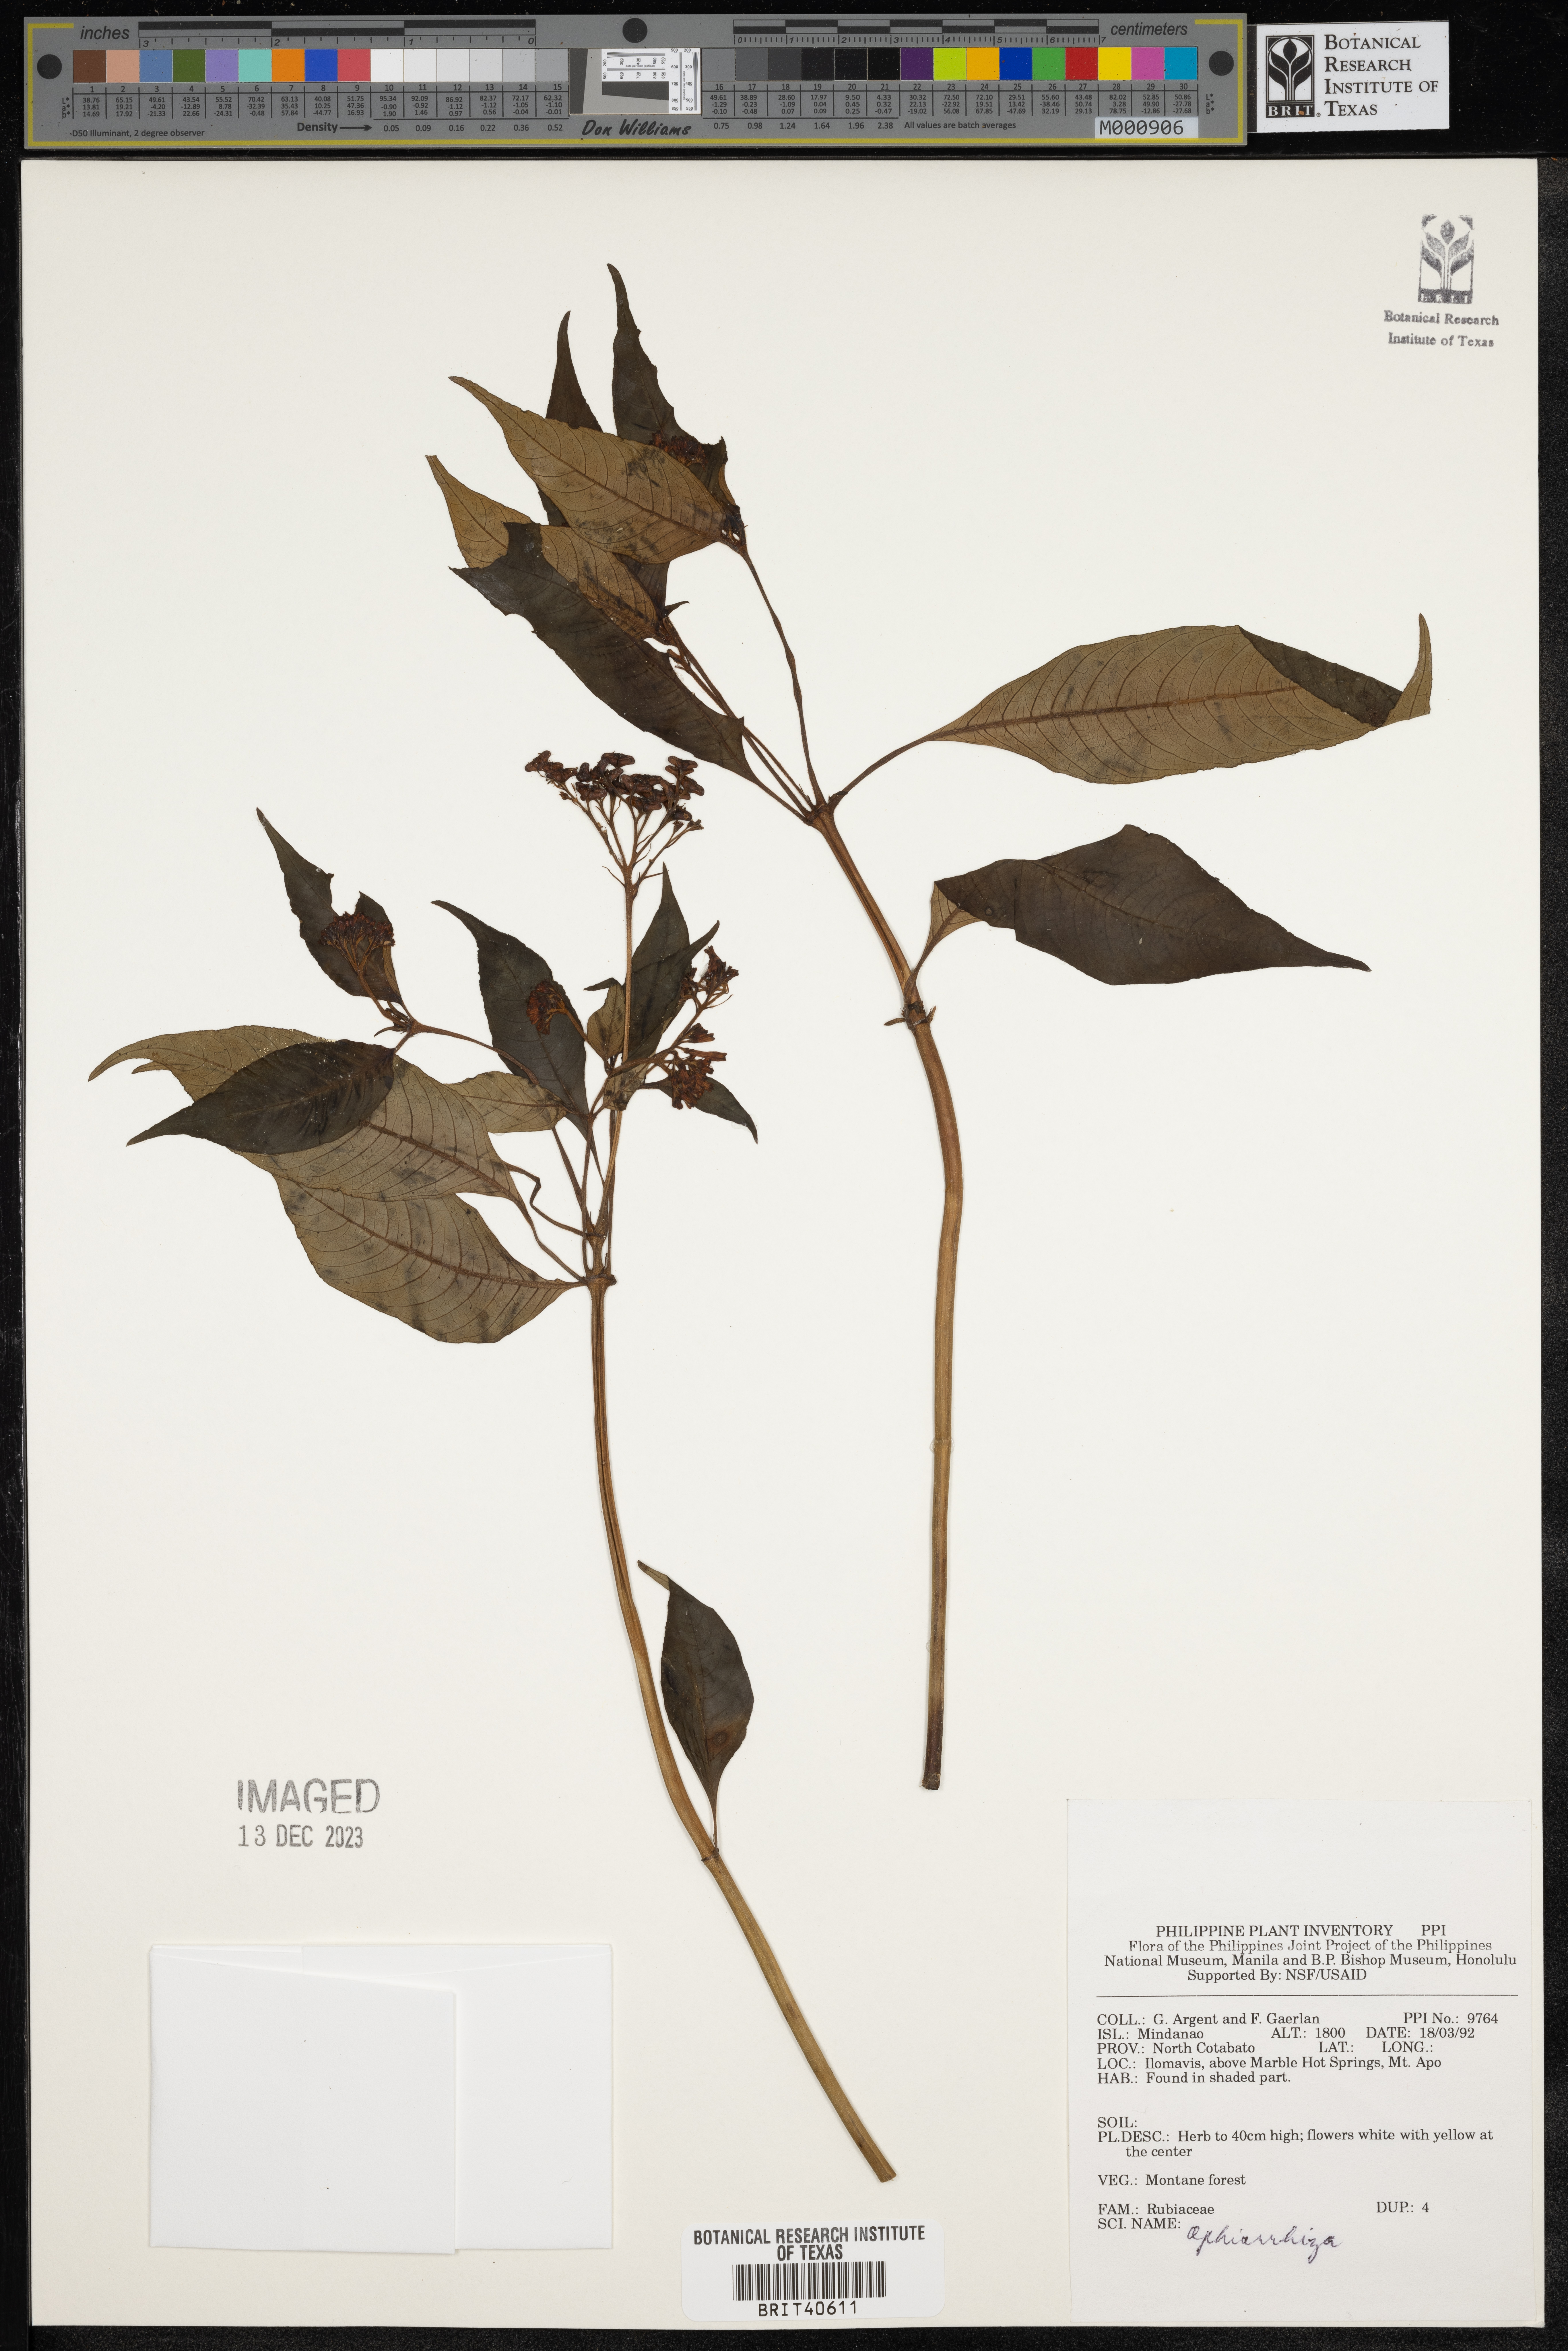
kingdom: Plantae
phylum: Tracheophyta
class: Magnoliopsida
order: Gentianales
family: Rubiaceae
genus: Ophiorrhiza
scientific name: Ophiorrhiza
